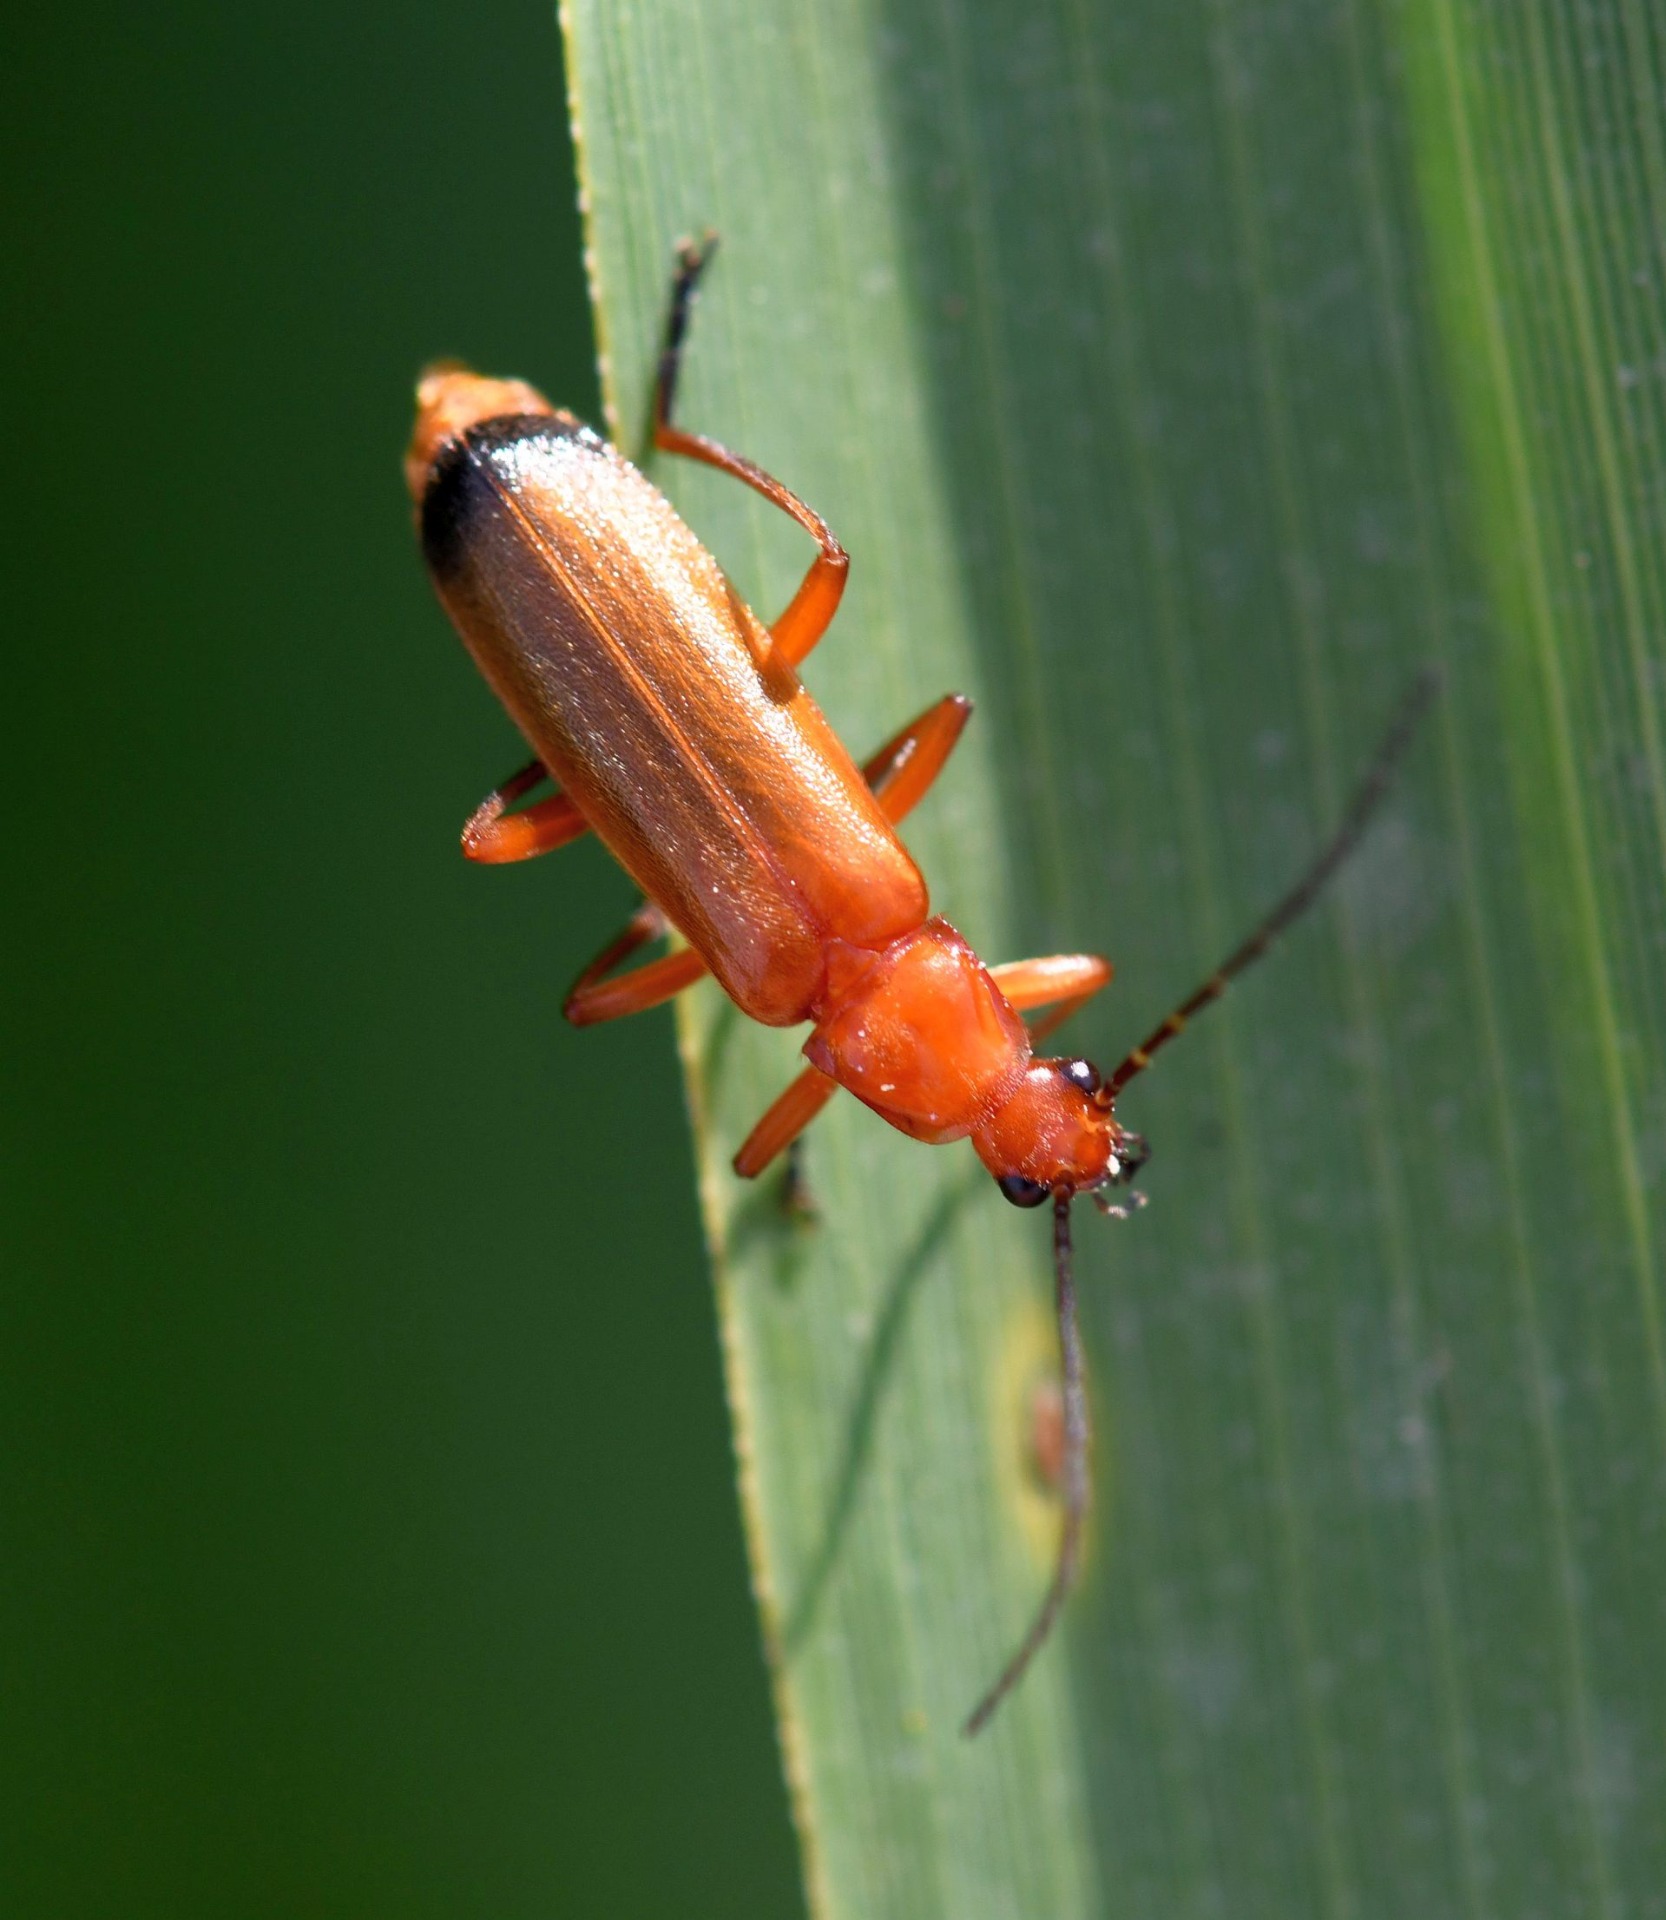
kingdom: Animalia
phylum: Arthropoda
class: Insecta
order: Coleoptera
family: Cantharidae
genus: Rhagonycha
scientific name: Rhagonycha fulva
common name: Præstebille
